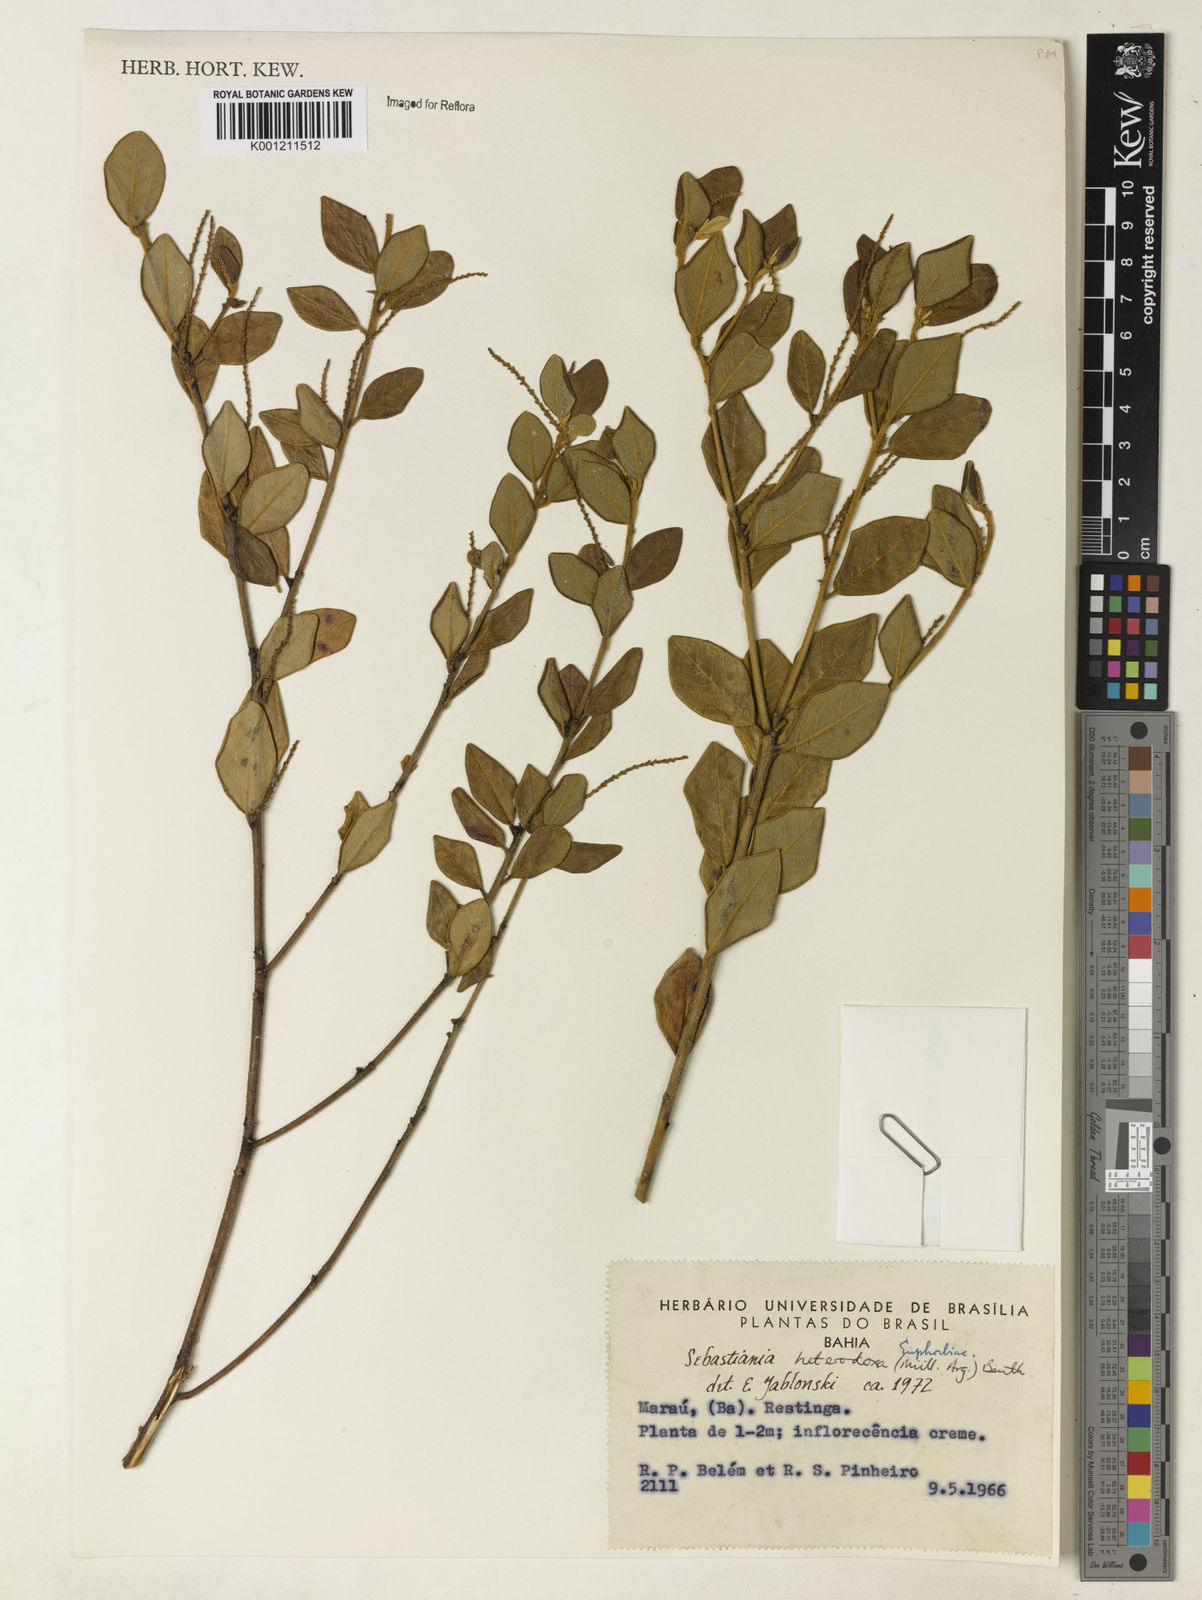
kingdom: Plantae
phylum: Tracheophyta
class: Magnoliopsida
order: Malpighiales
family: Euphorbiaceae
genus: Microstachys
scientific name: Microstachys
